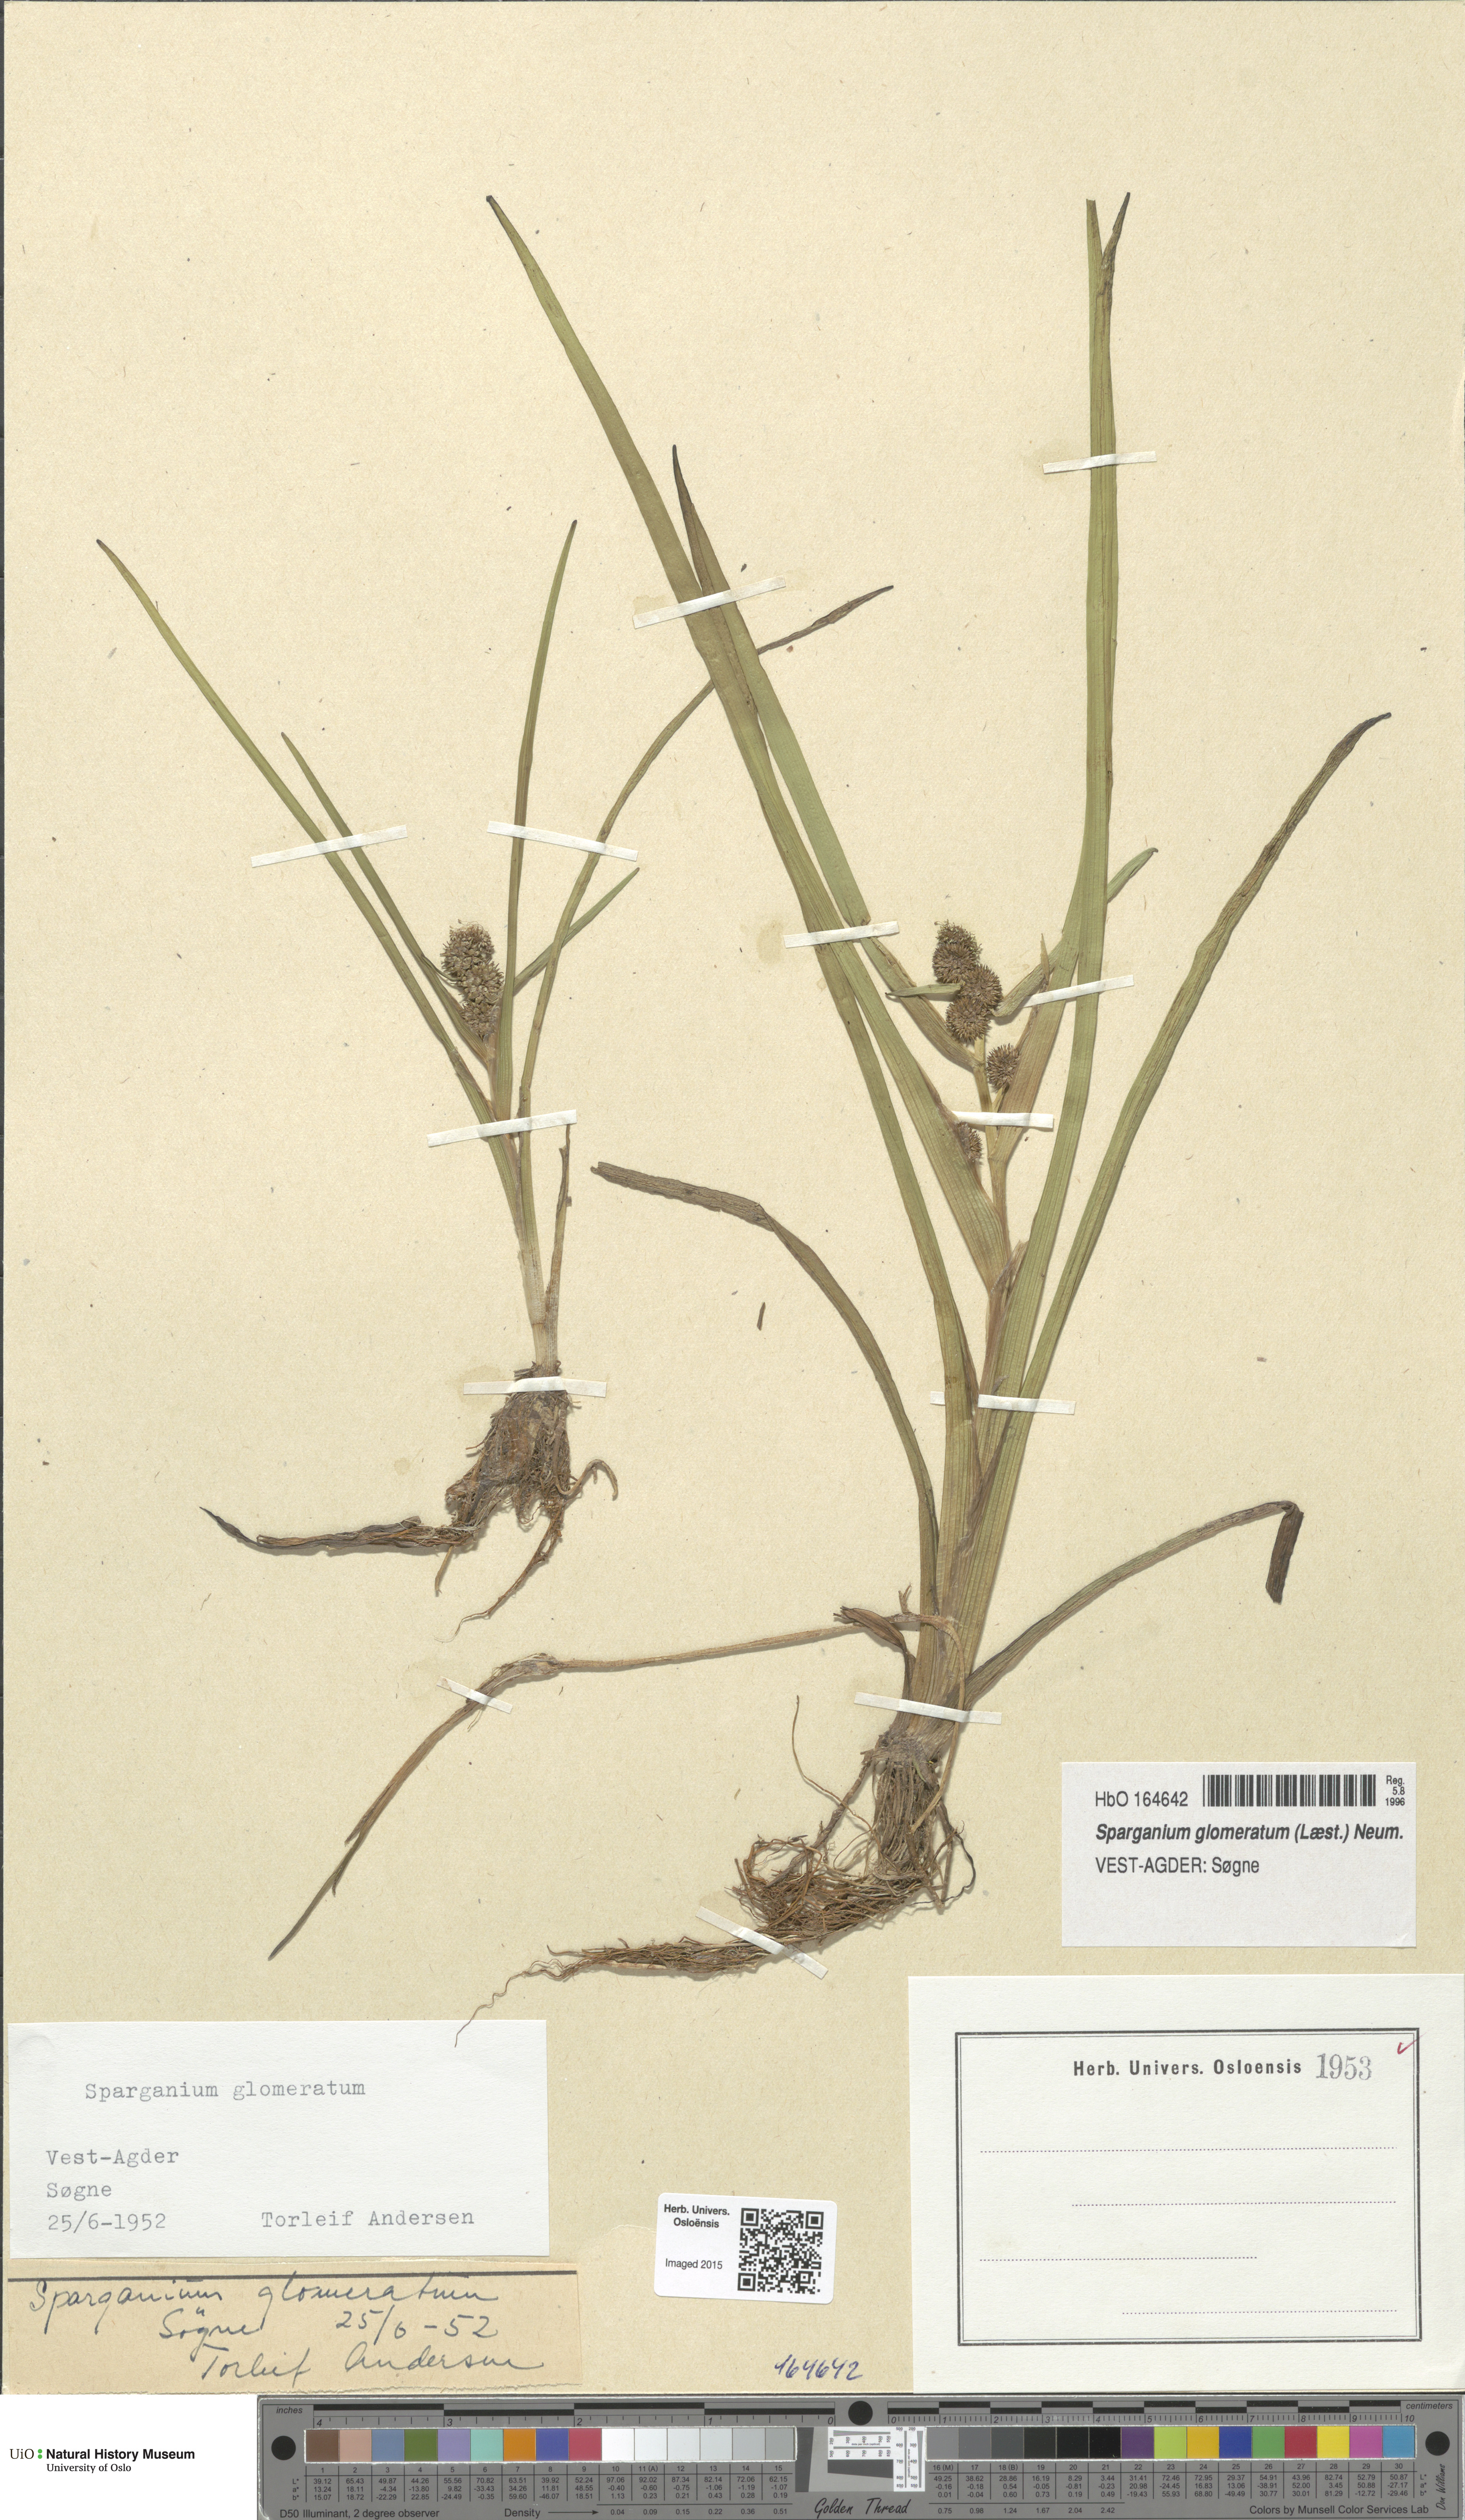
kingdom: Plantae
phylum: Tracheophyta
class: Liliopsida
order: Poales
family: Typhaceae
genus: Sparganium
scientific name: Sparganium glomeratum
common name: Clustered burreed
